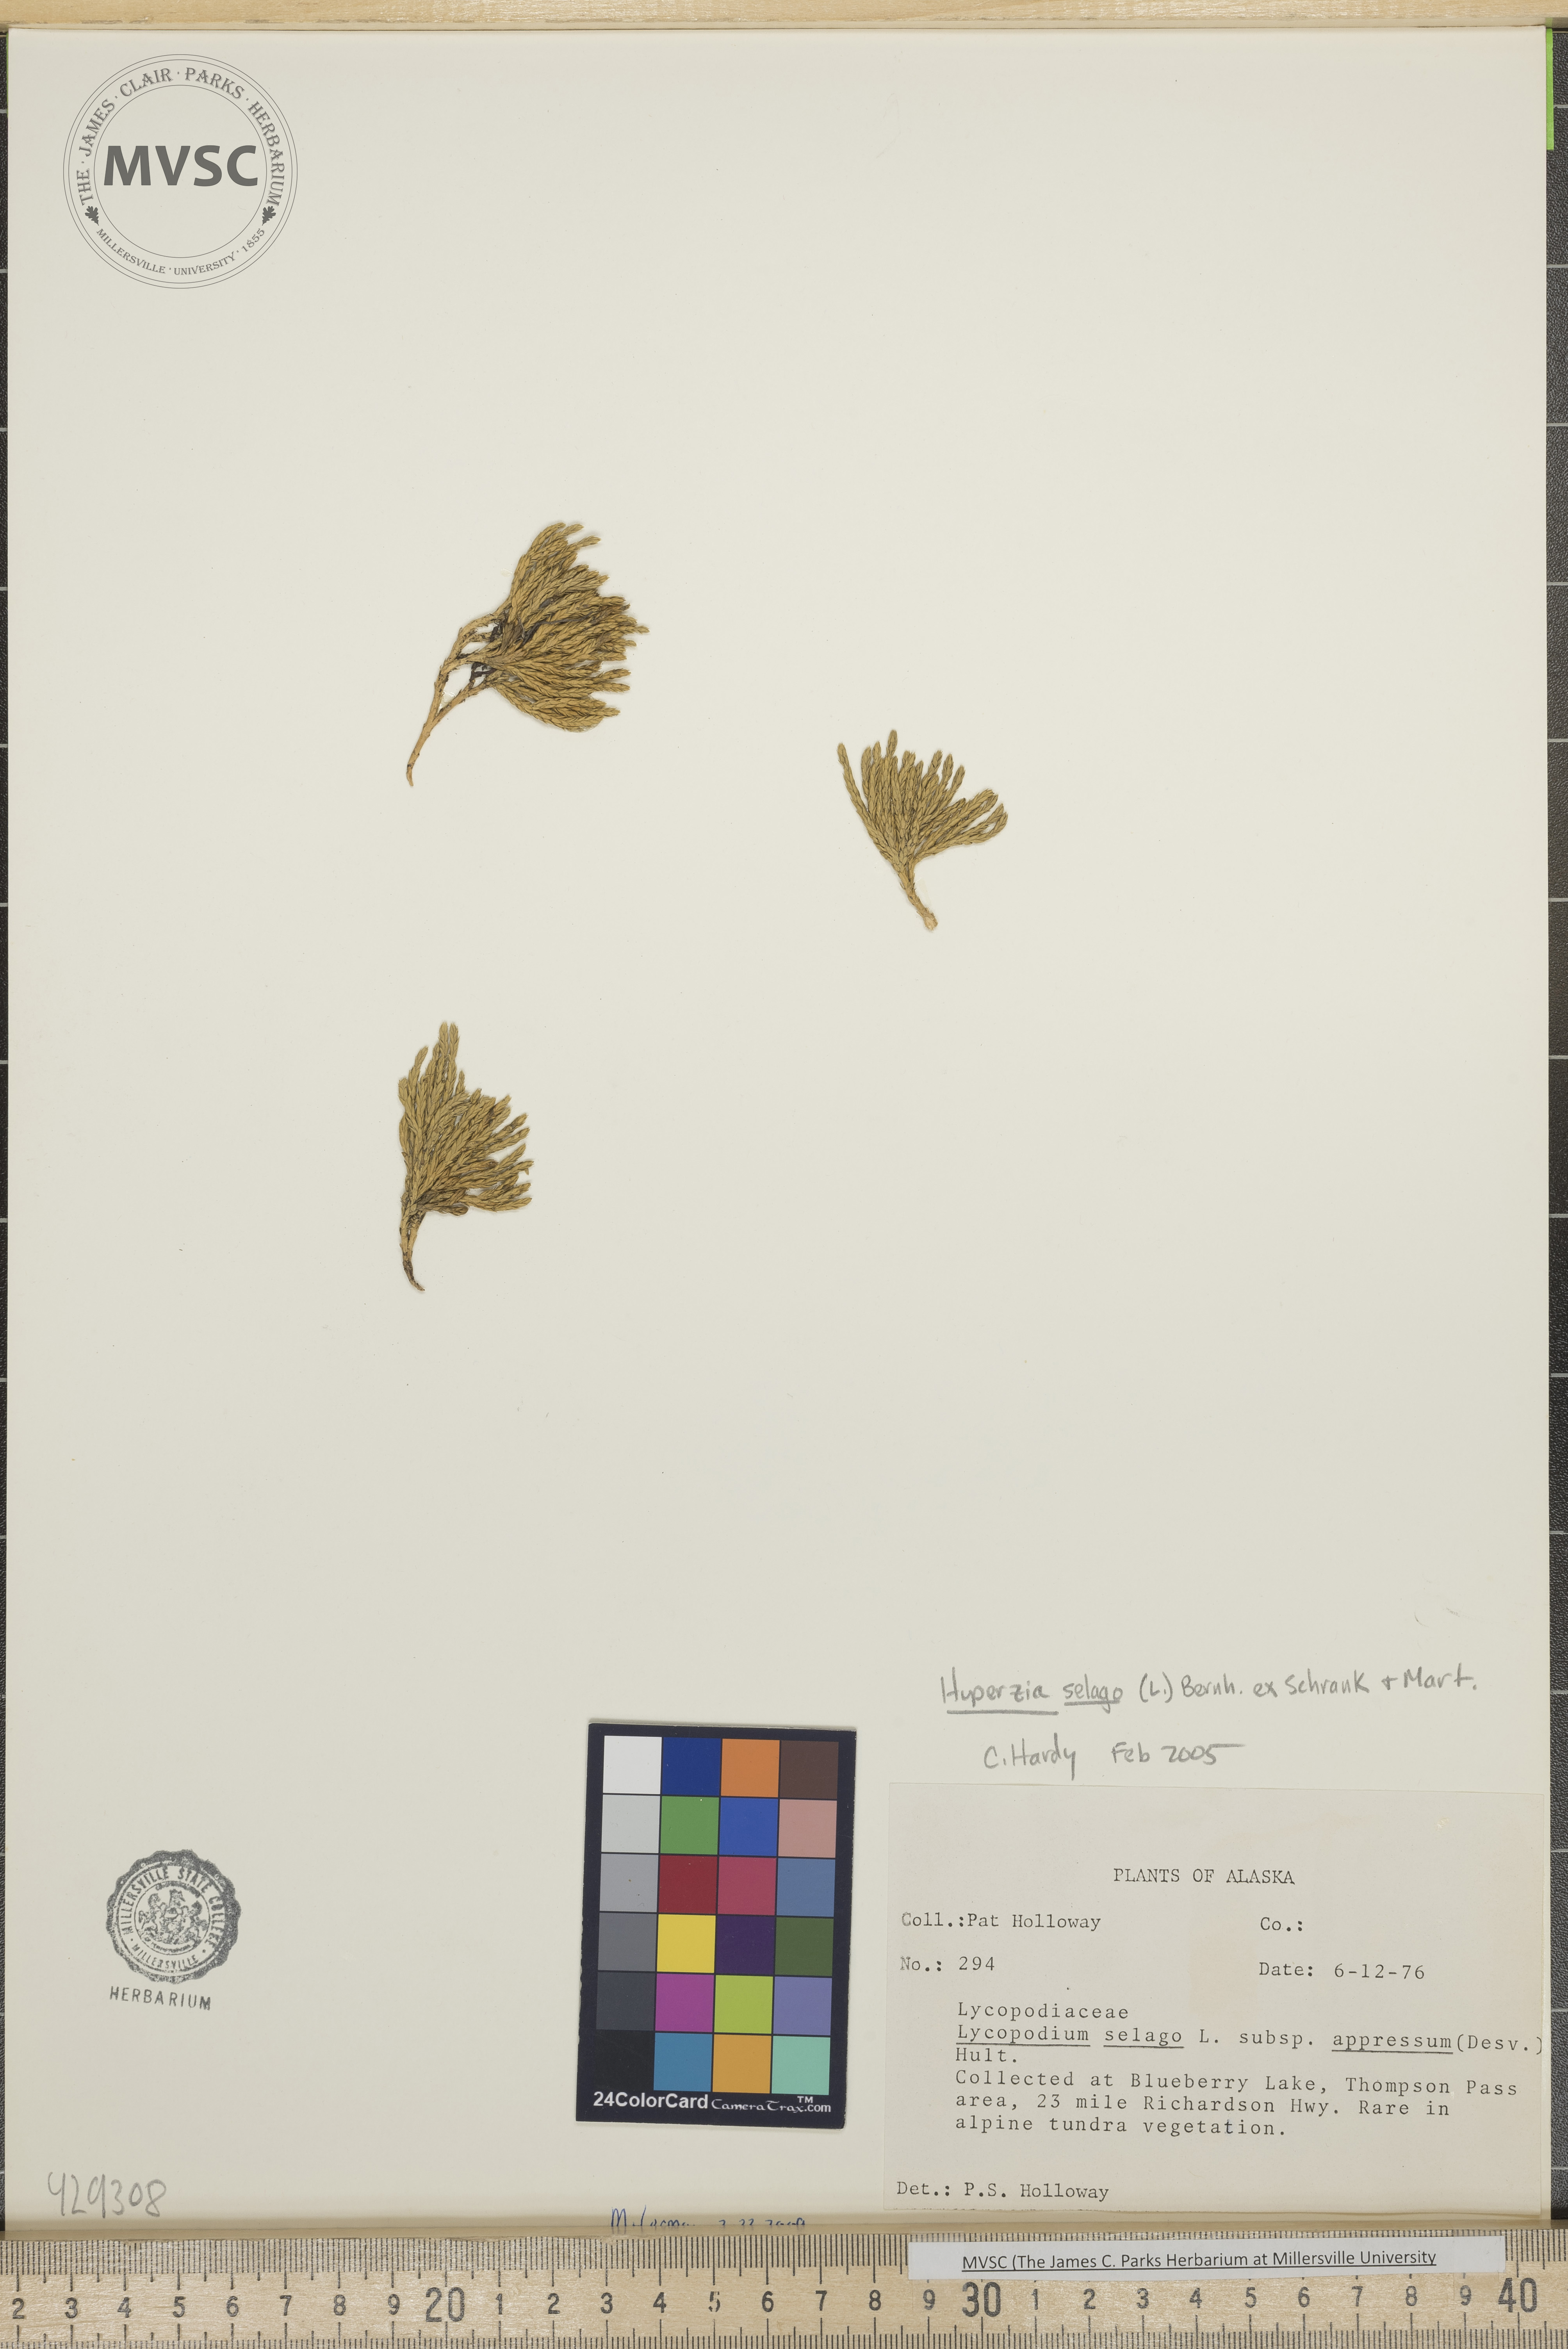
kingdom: Plantae
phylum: Tracheophyta
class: Lycopodiopsida
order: Lycopodiales
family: Lycopodiaceae
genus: Huperzia
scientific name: Huperzia selago
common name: Northern firmoss
